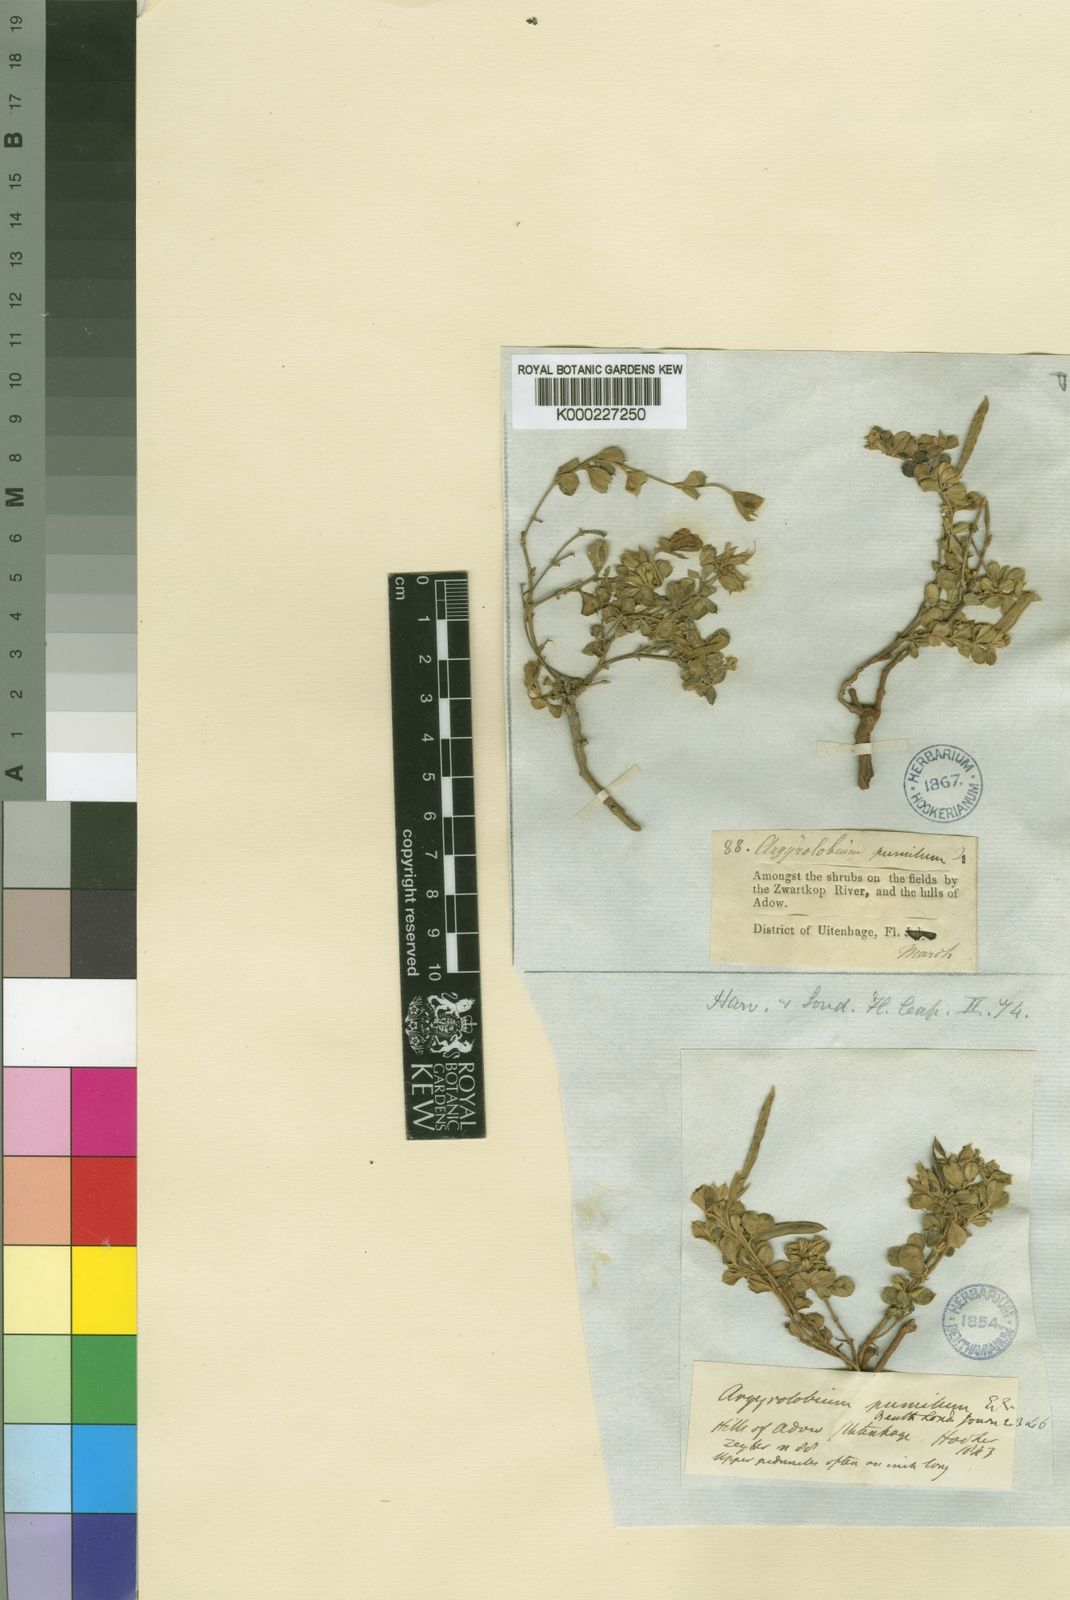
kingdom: Plantae
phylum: Tracheophyta
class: Magnoliopsida
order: Fabales
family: Fabaceae
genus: Argyrolobium
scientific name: Argyrolobium pumilum
